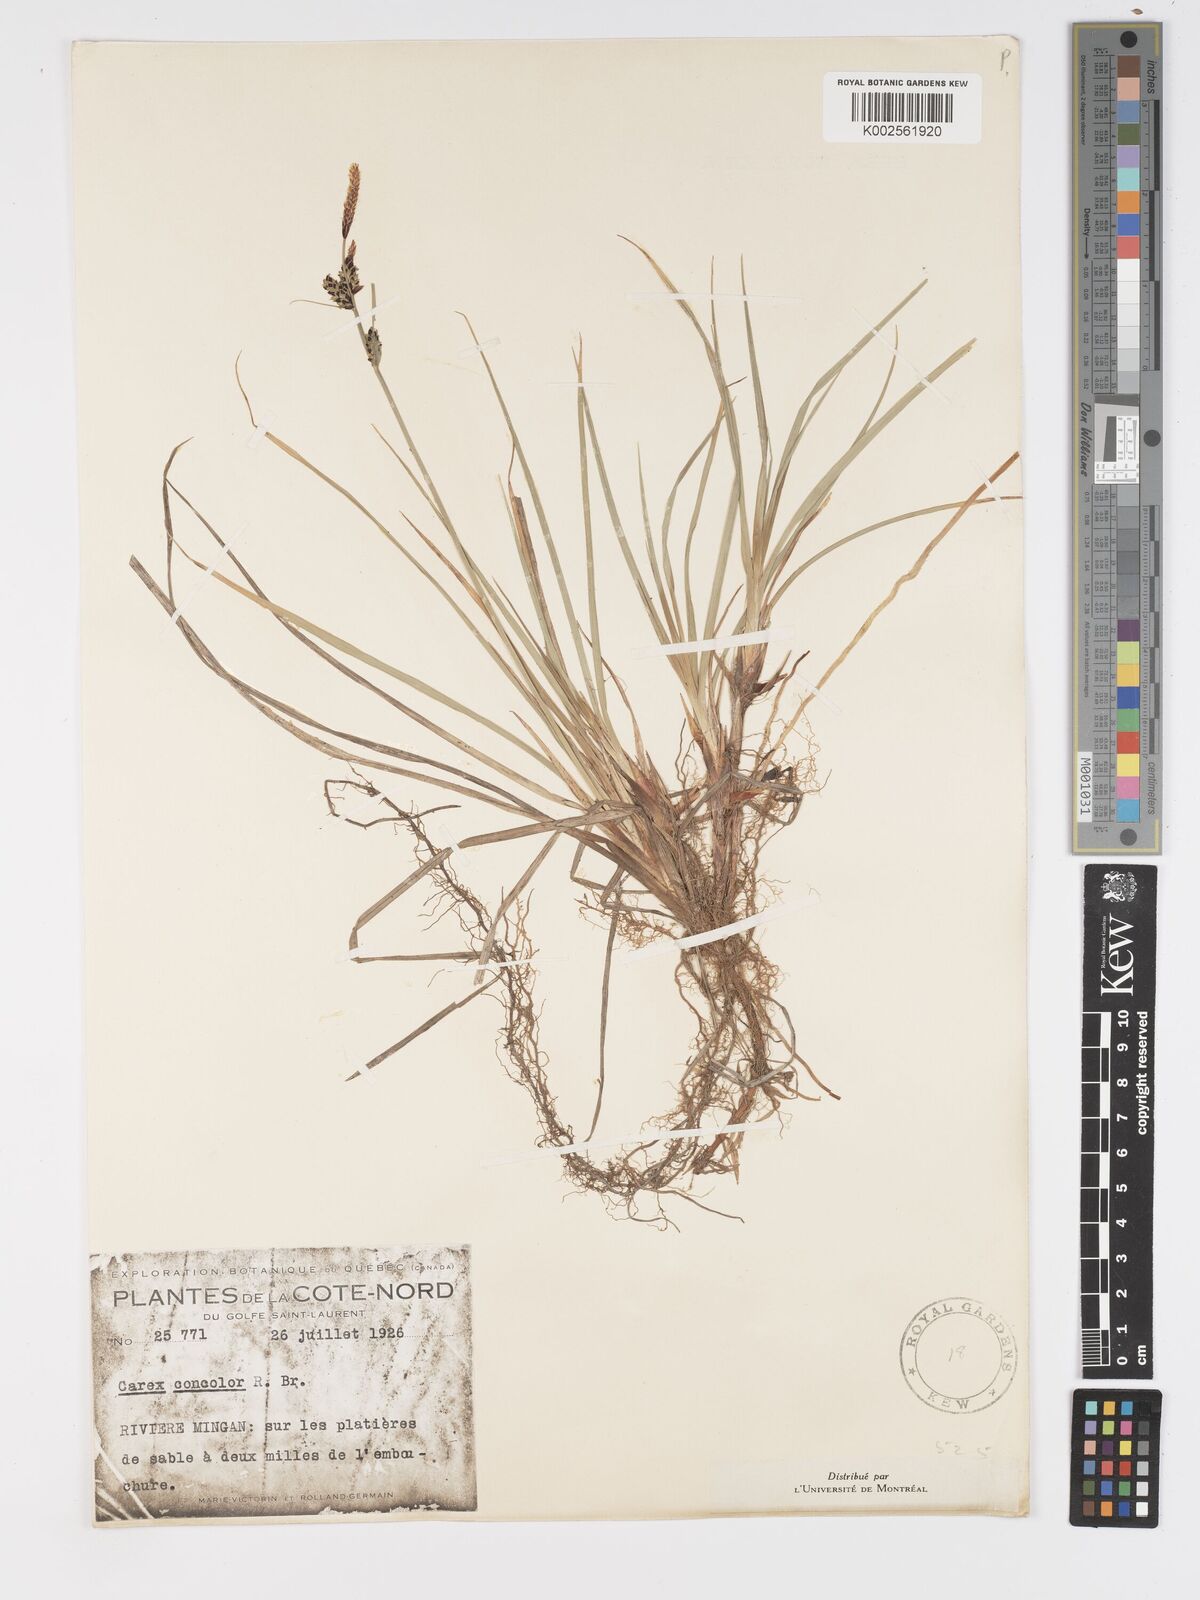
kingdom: Plantae
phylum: Tracheophyta
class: Liliopsida
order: Poales
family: Cyperaceae
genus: Carex
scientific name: Carex bigelowii
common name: Stiff sedge
